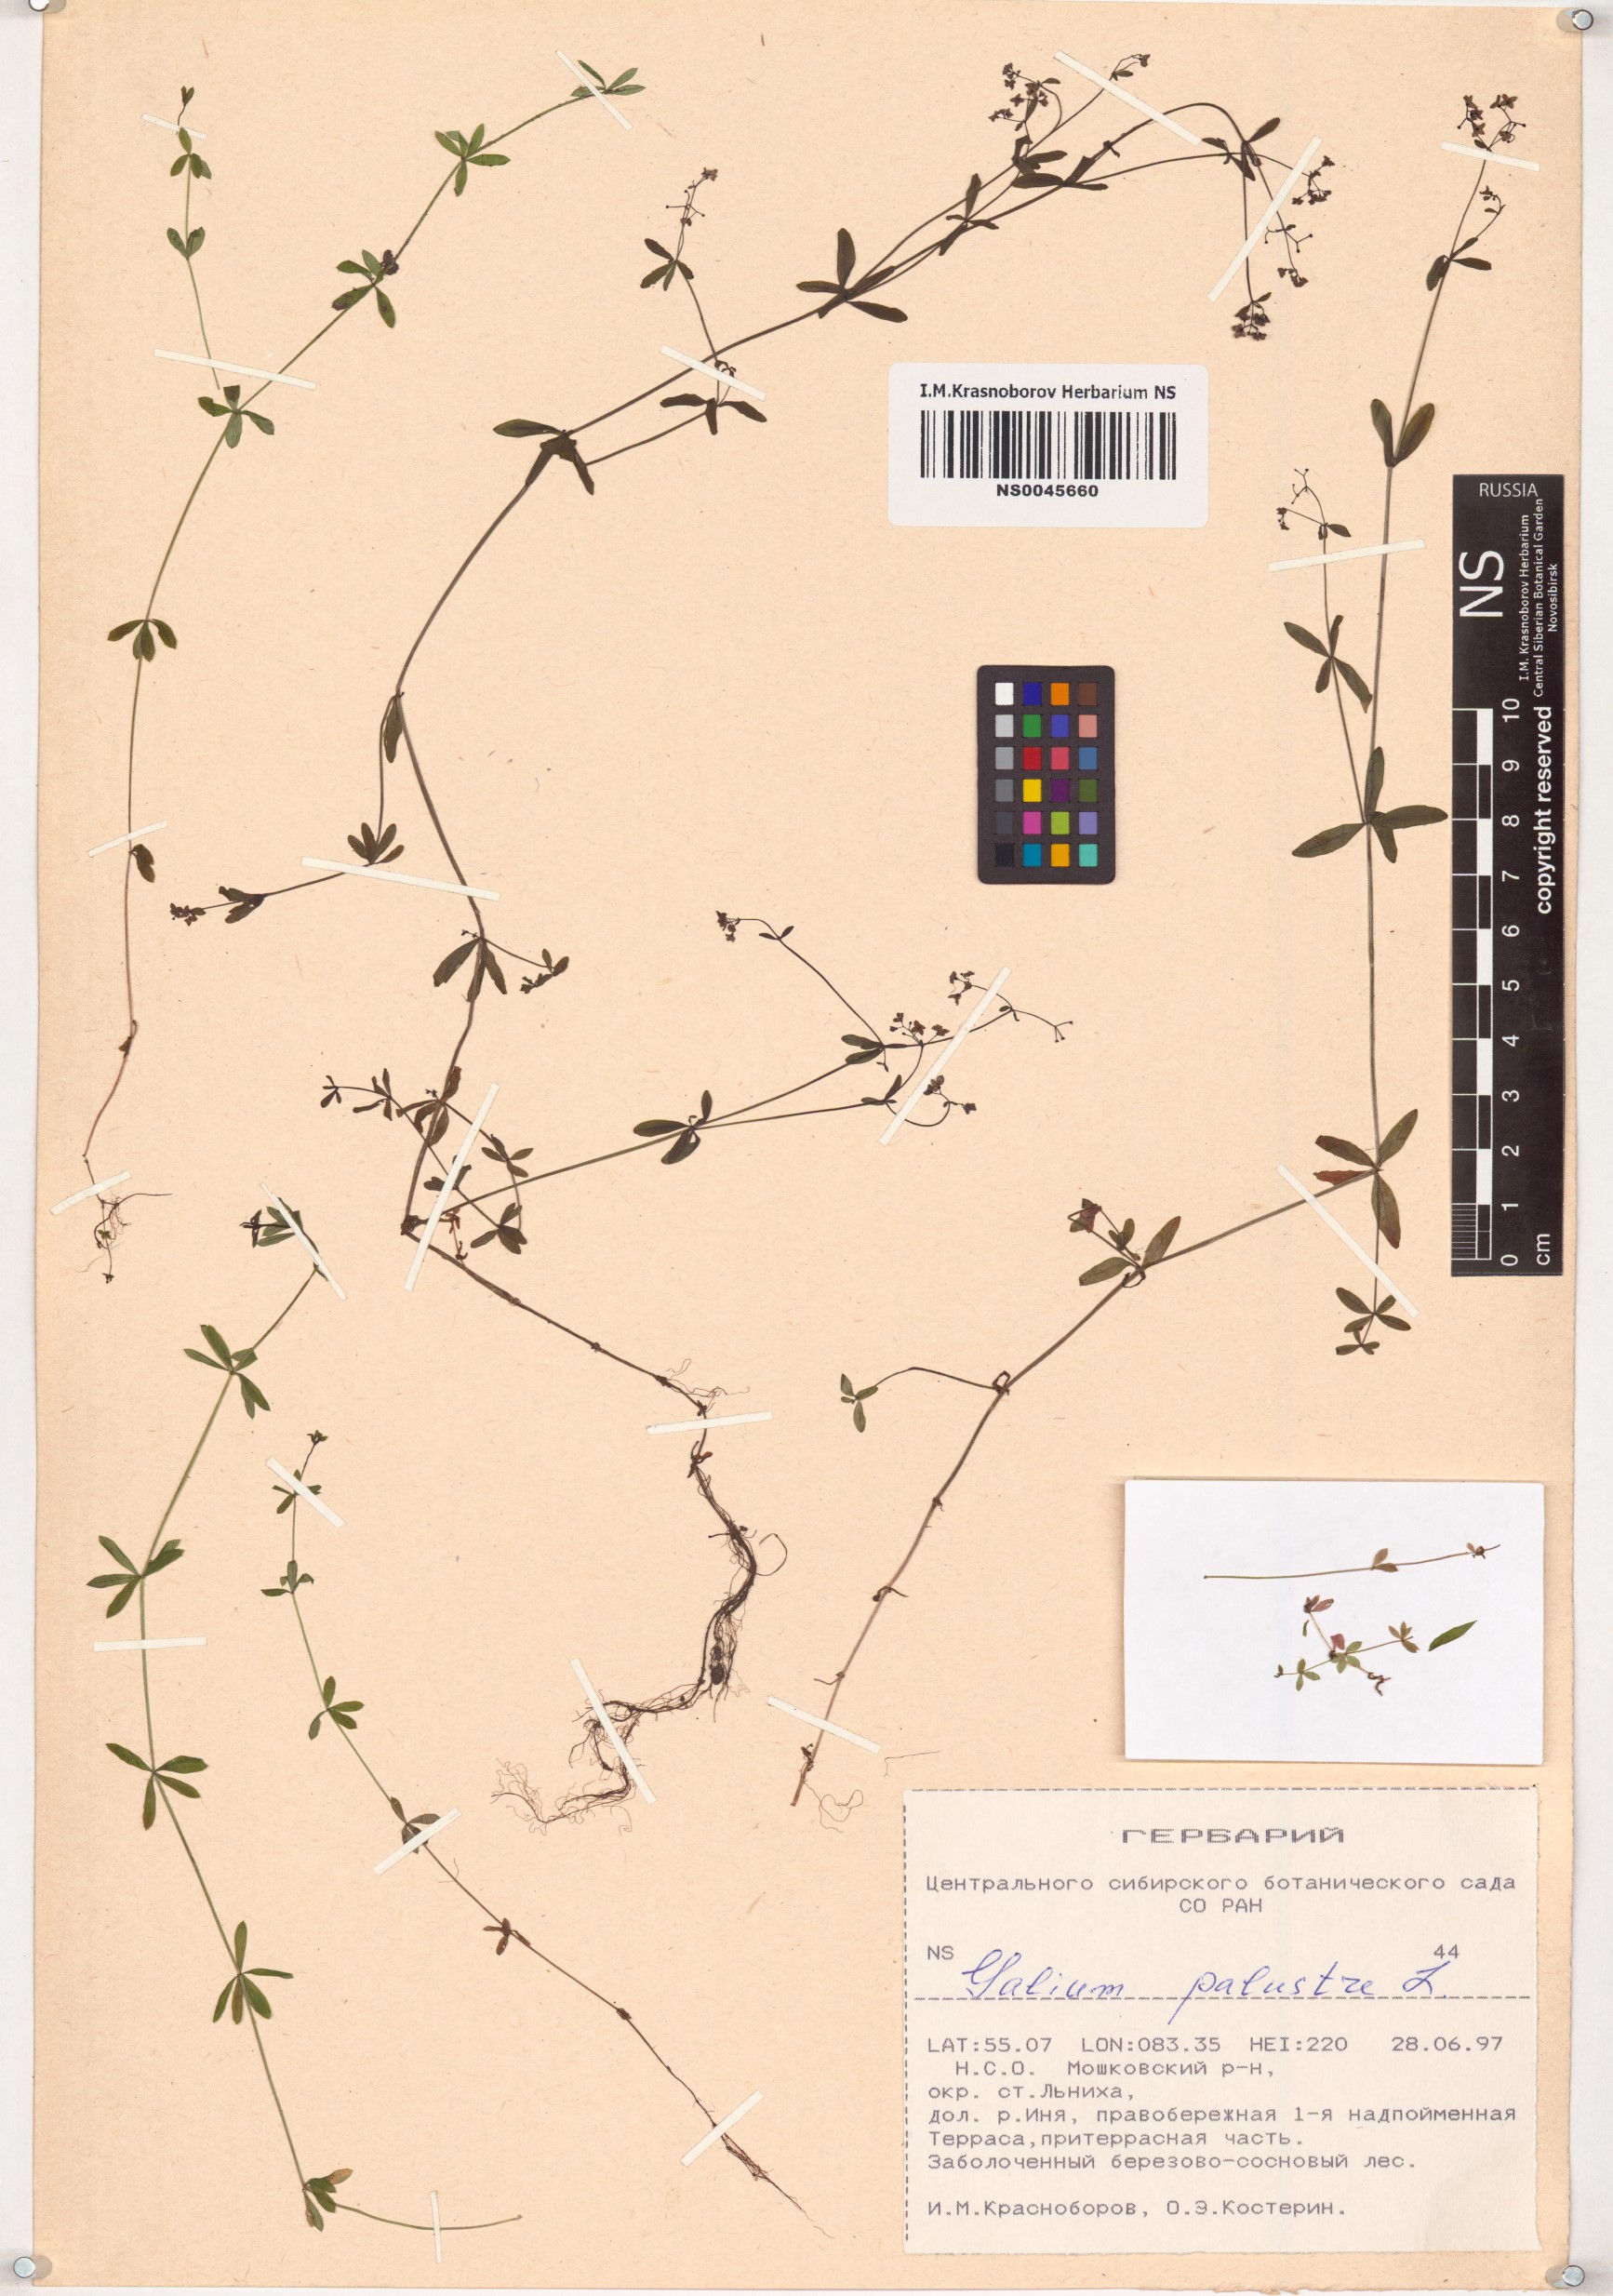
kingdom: Plantae
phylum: Tracheophyta
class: Magnoliopsida
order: Gentianales
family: Rubiaceae
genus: Galium
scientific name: Galium palustre
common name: Common marsh-bedstraw
